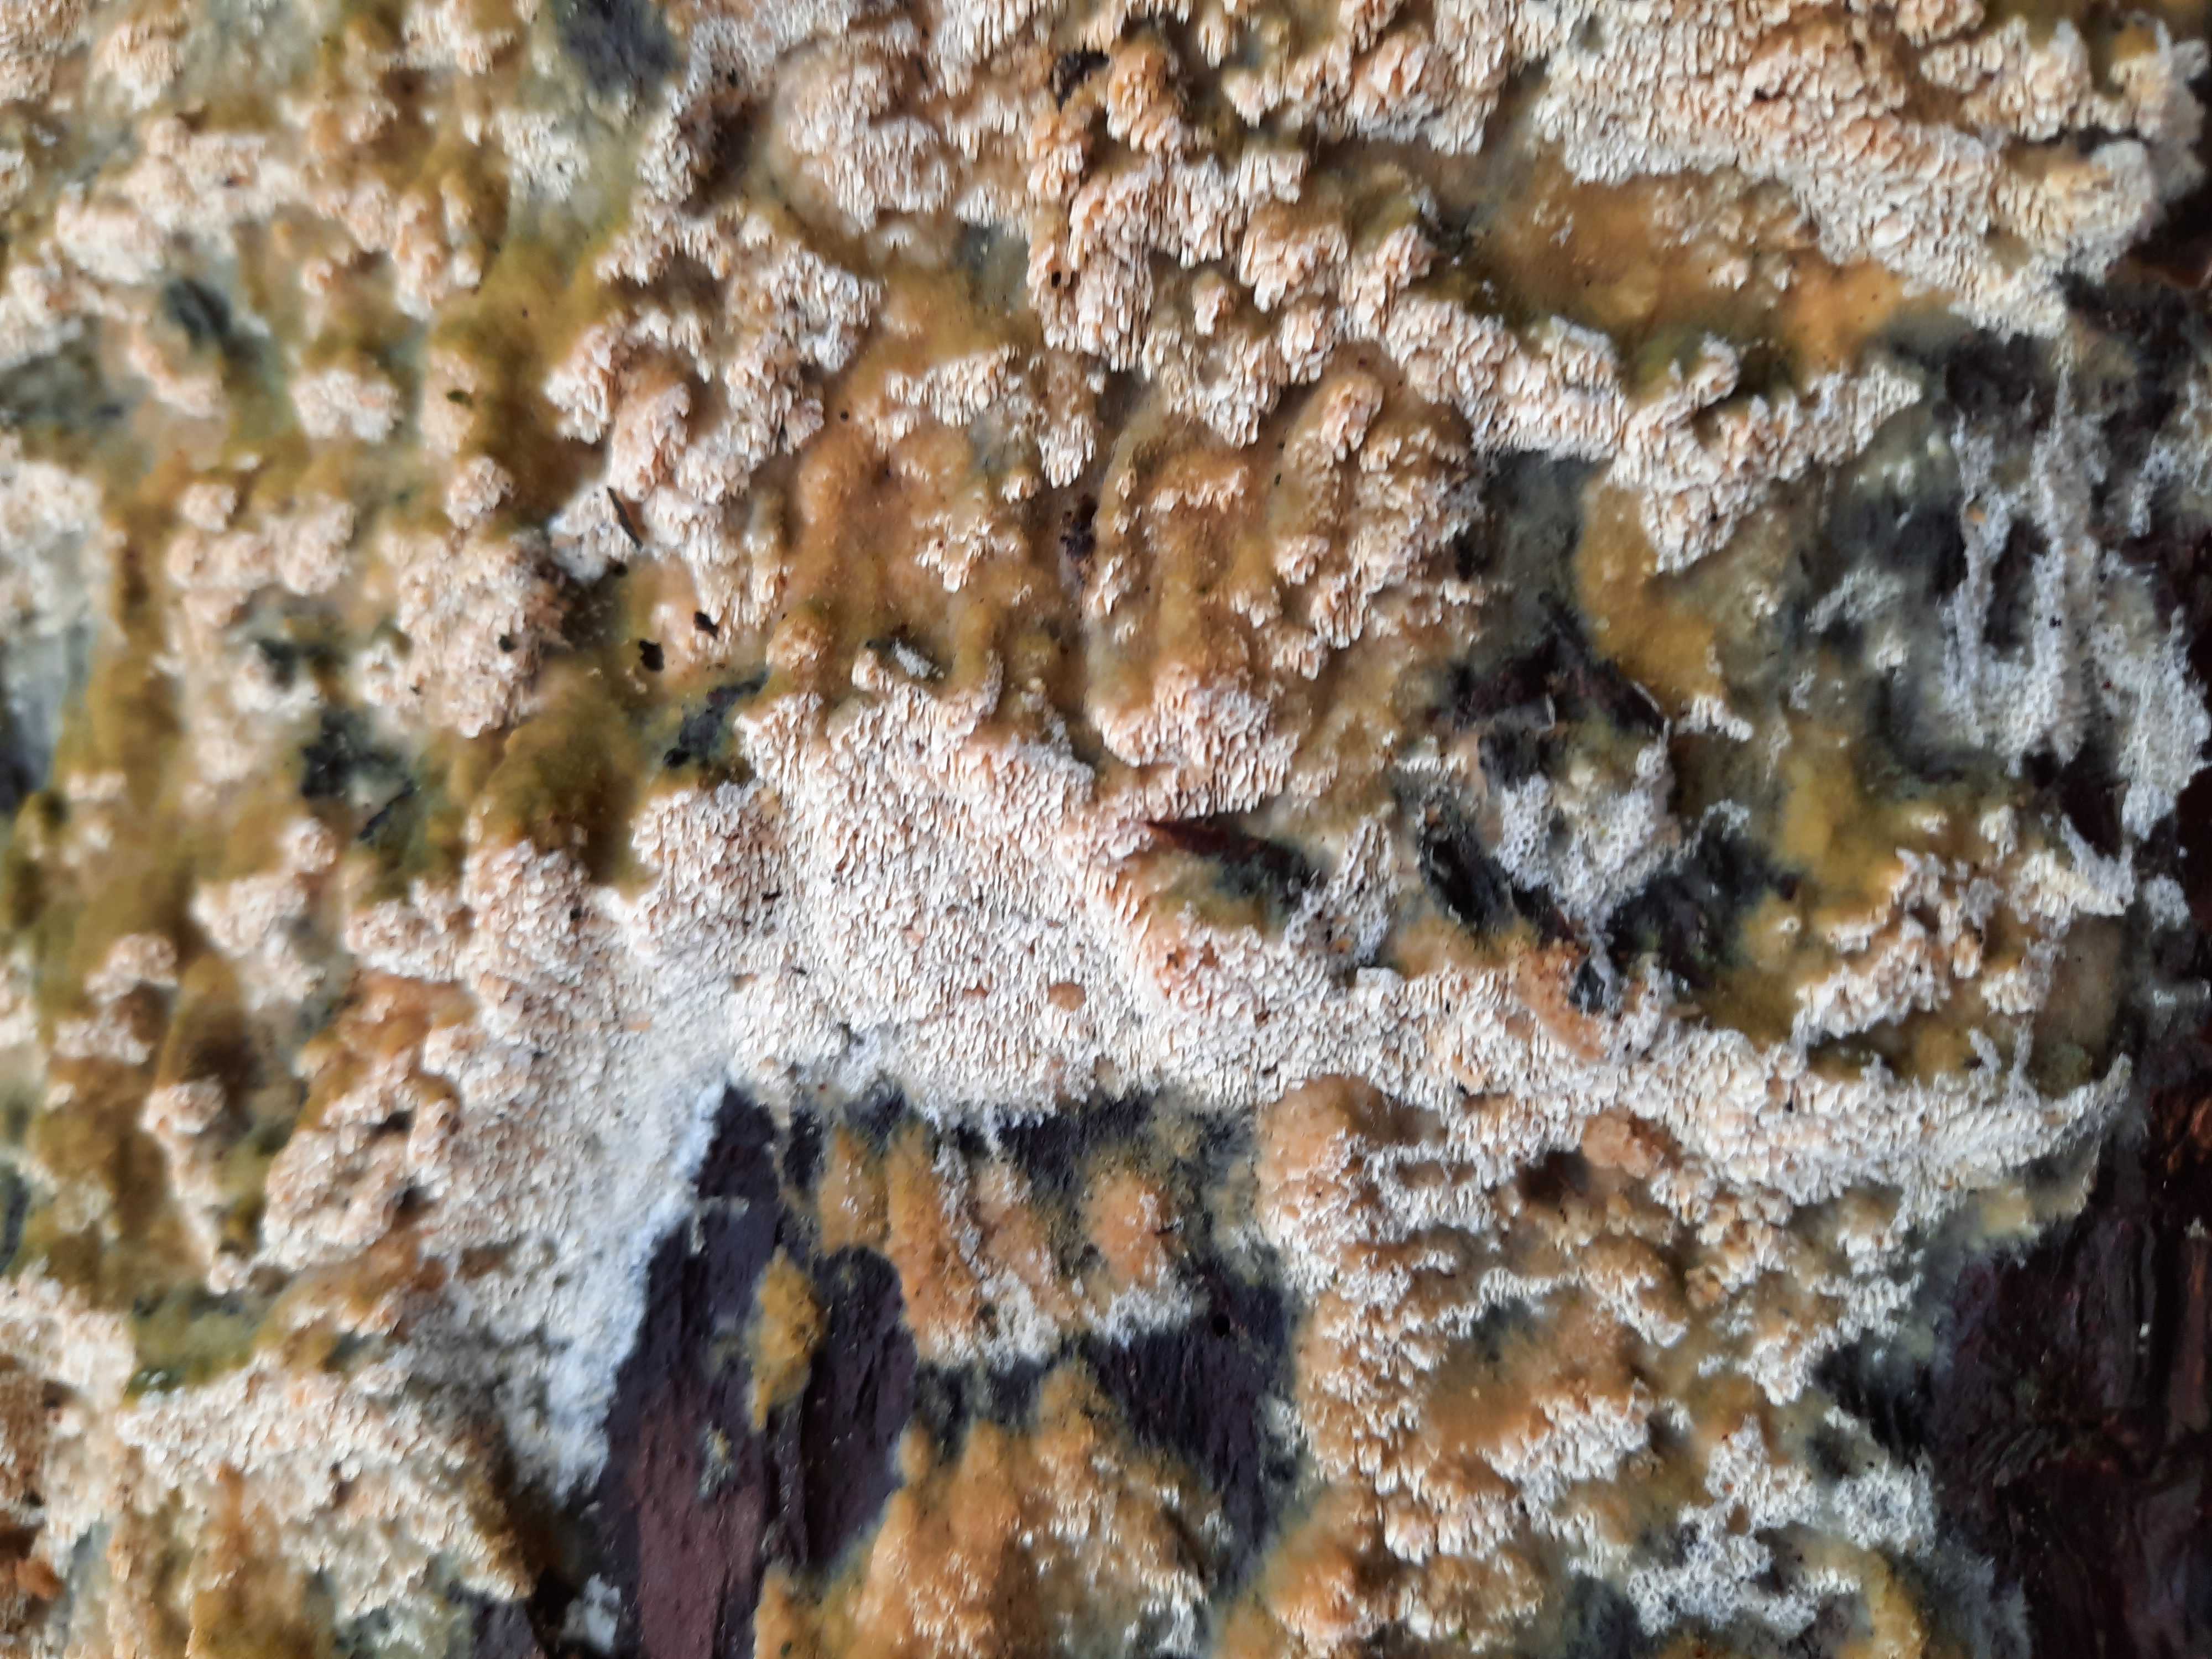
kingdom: Fungi
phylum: Basidiomycota
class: Agaricomycetes
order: Hymenochaetales
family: Schizoporaceae
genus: Xylodon
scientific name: Xylodon
